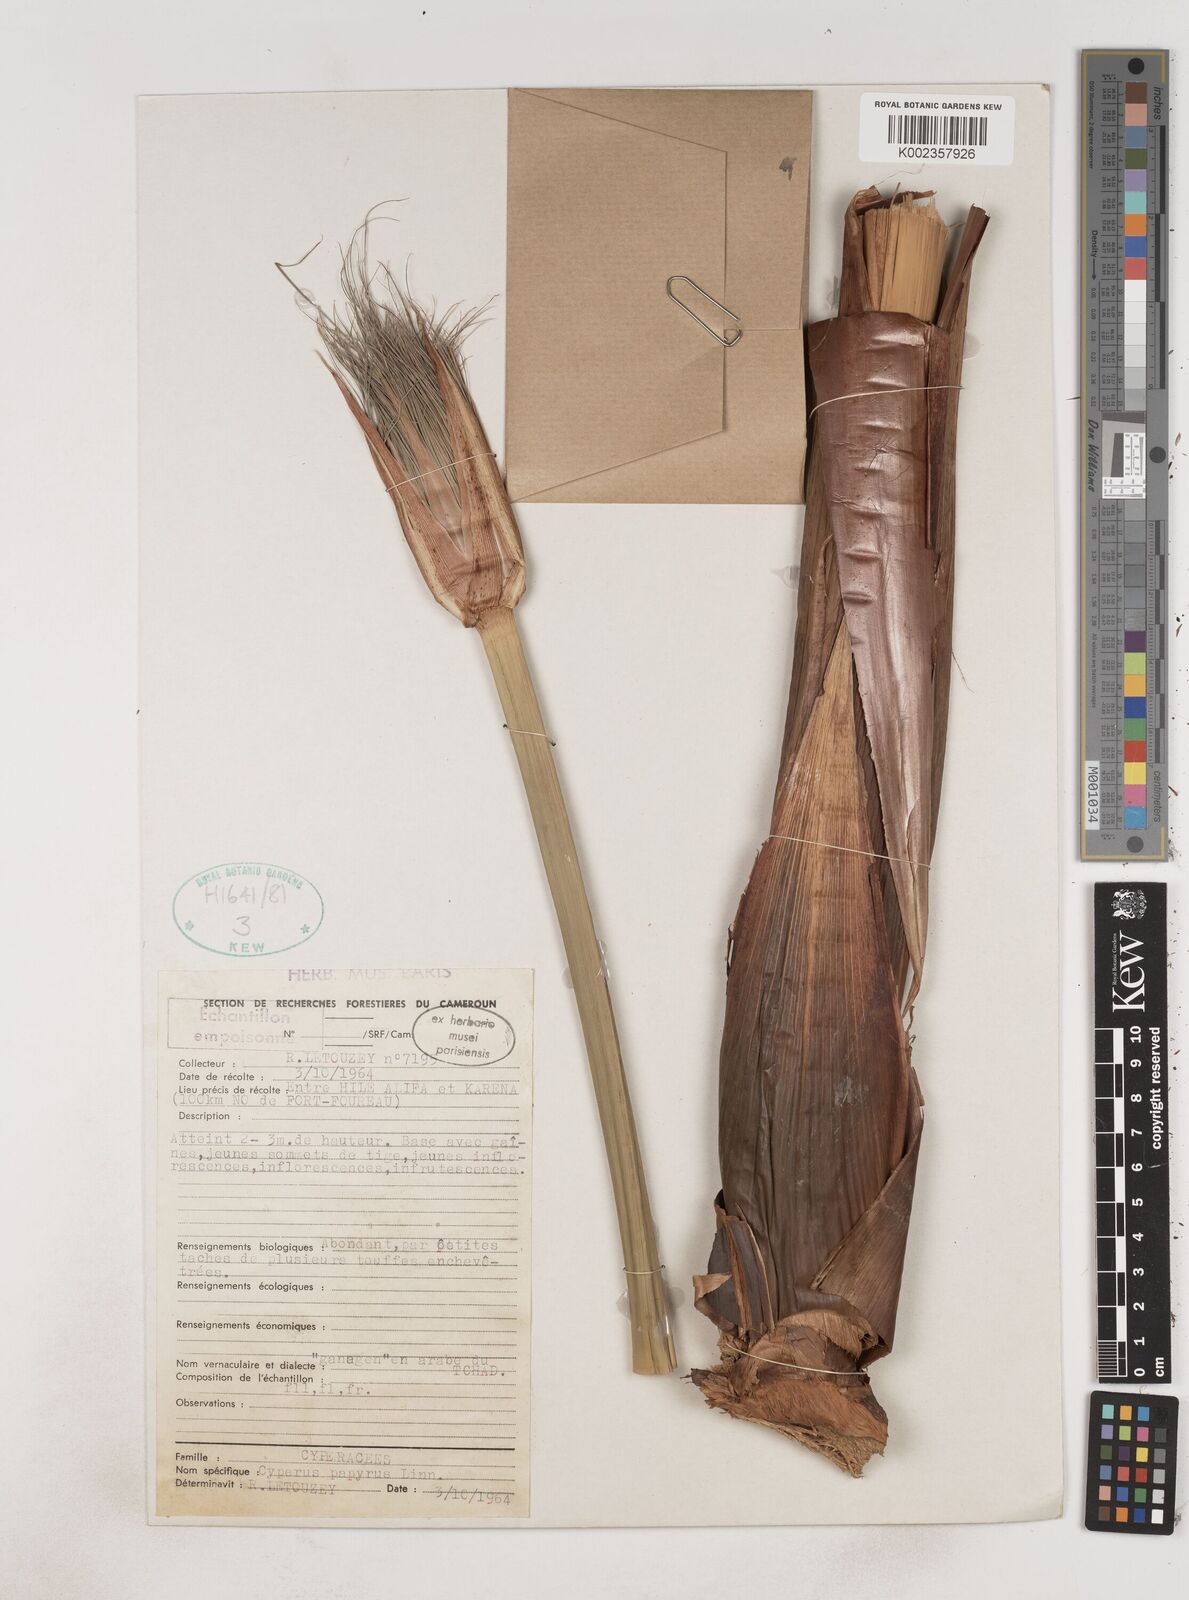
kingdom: Plantae
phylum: Tracheophyta
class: Liliopsida
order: Poales
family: Cyperaceae
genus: Cyperus
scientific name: Cyperus papyrus
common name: Papyrus
